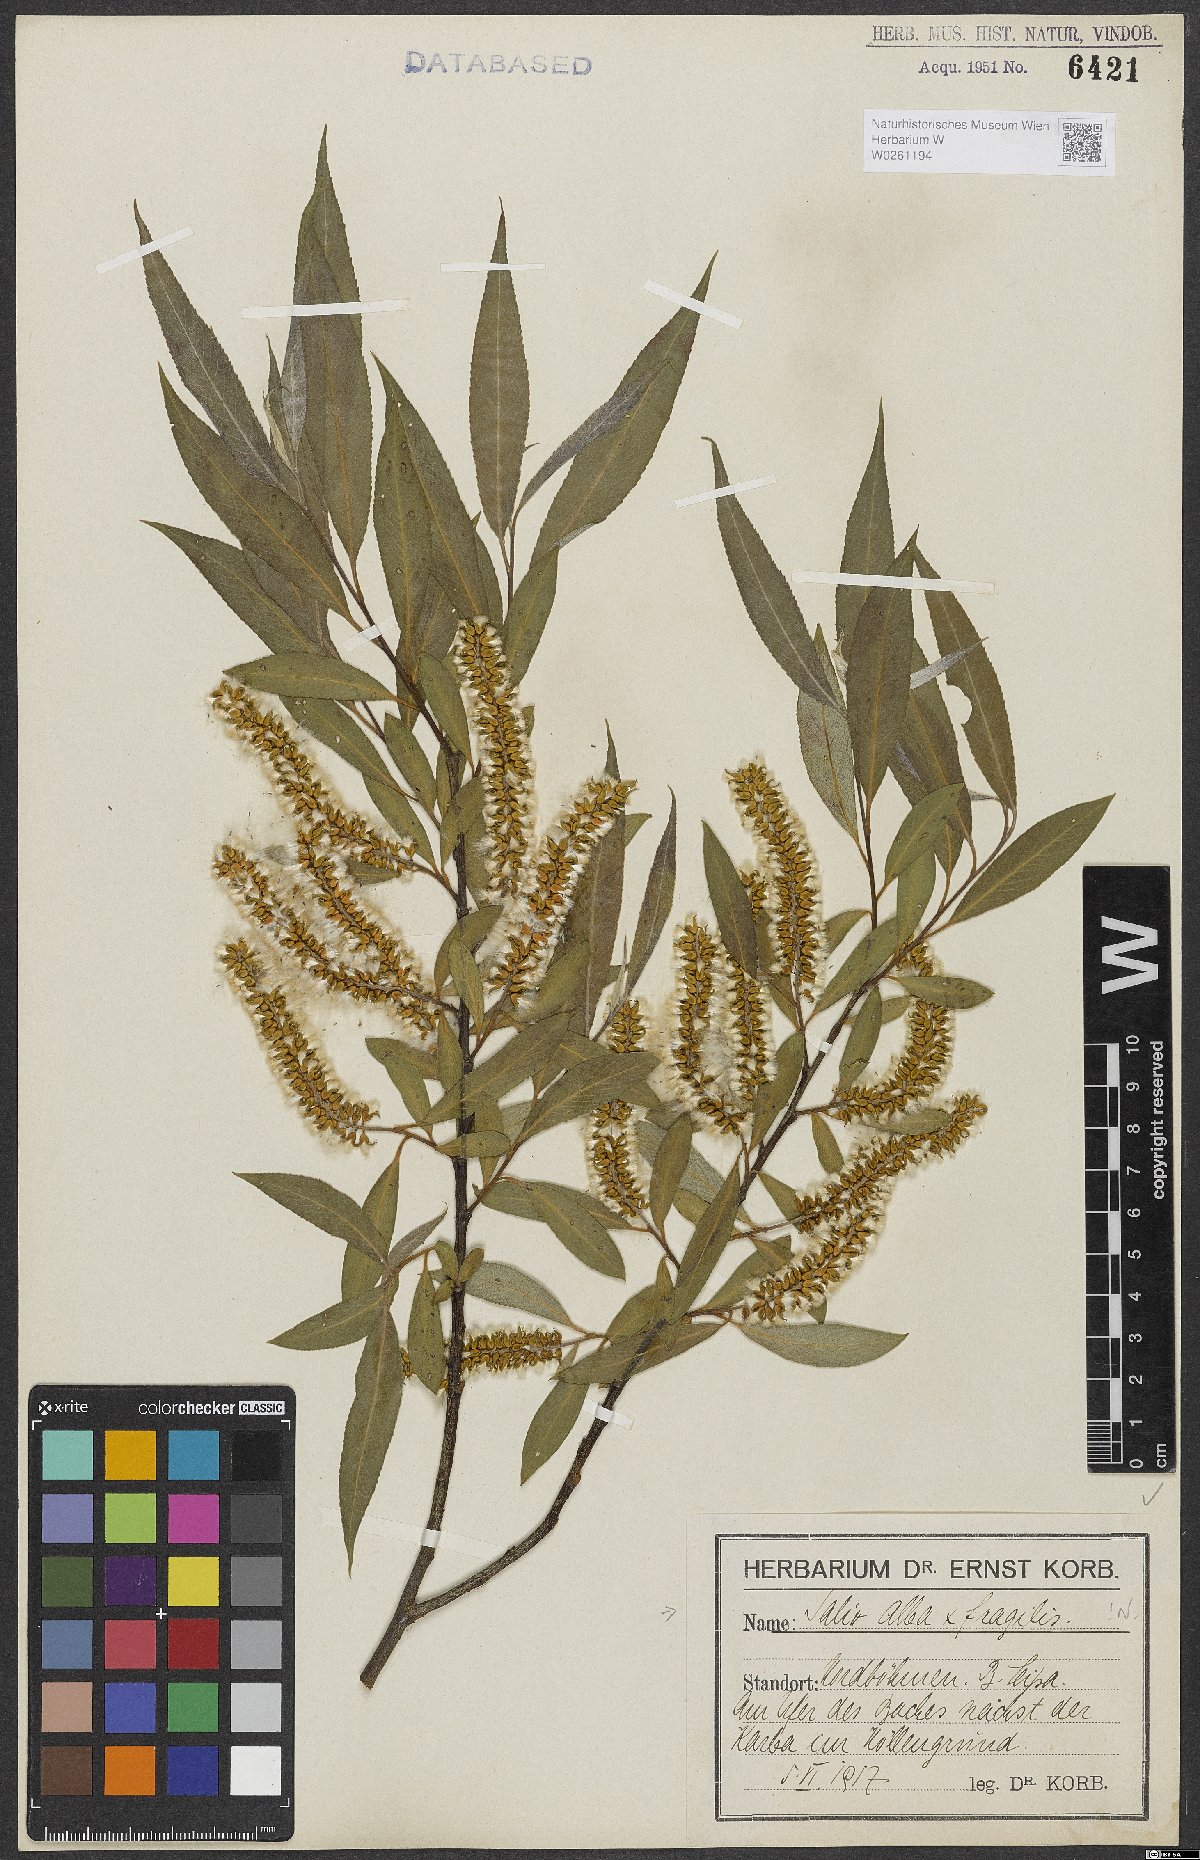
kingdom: Plantae
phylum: Tracheophyta
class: Magnoliopsida
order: Malpighiales
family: Salicaceae
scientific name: Salicaceae
